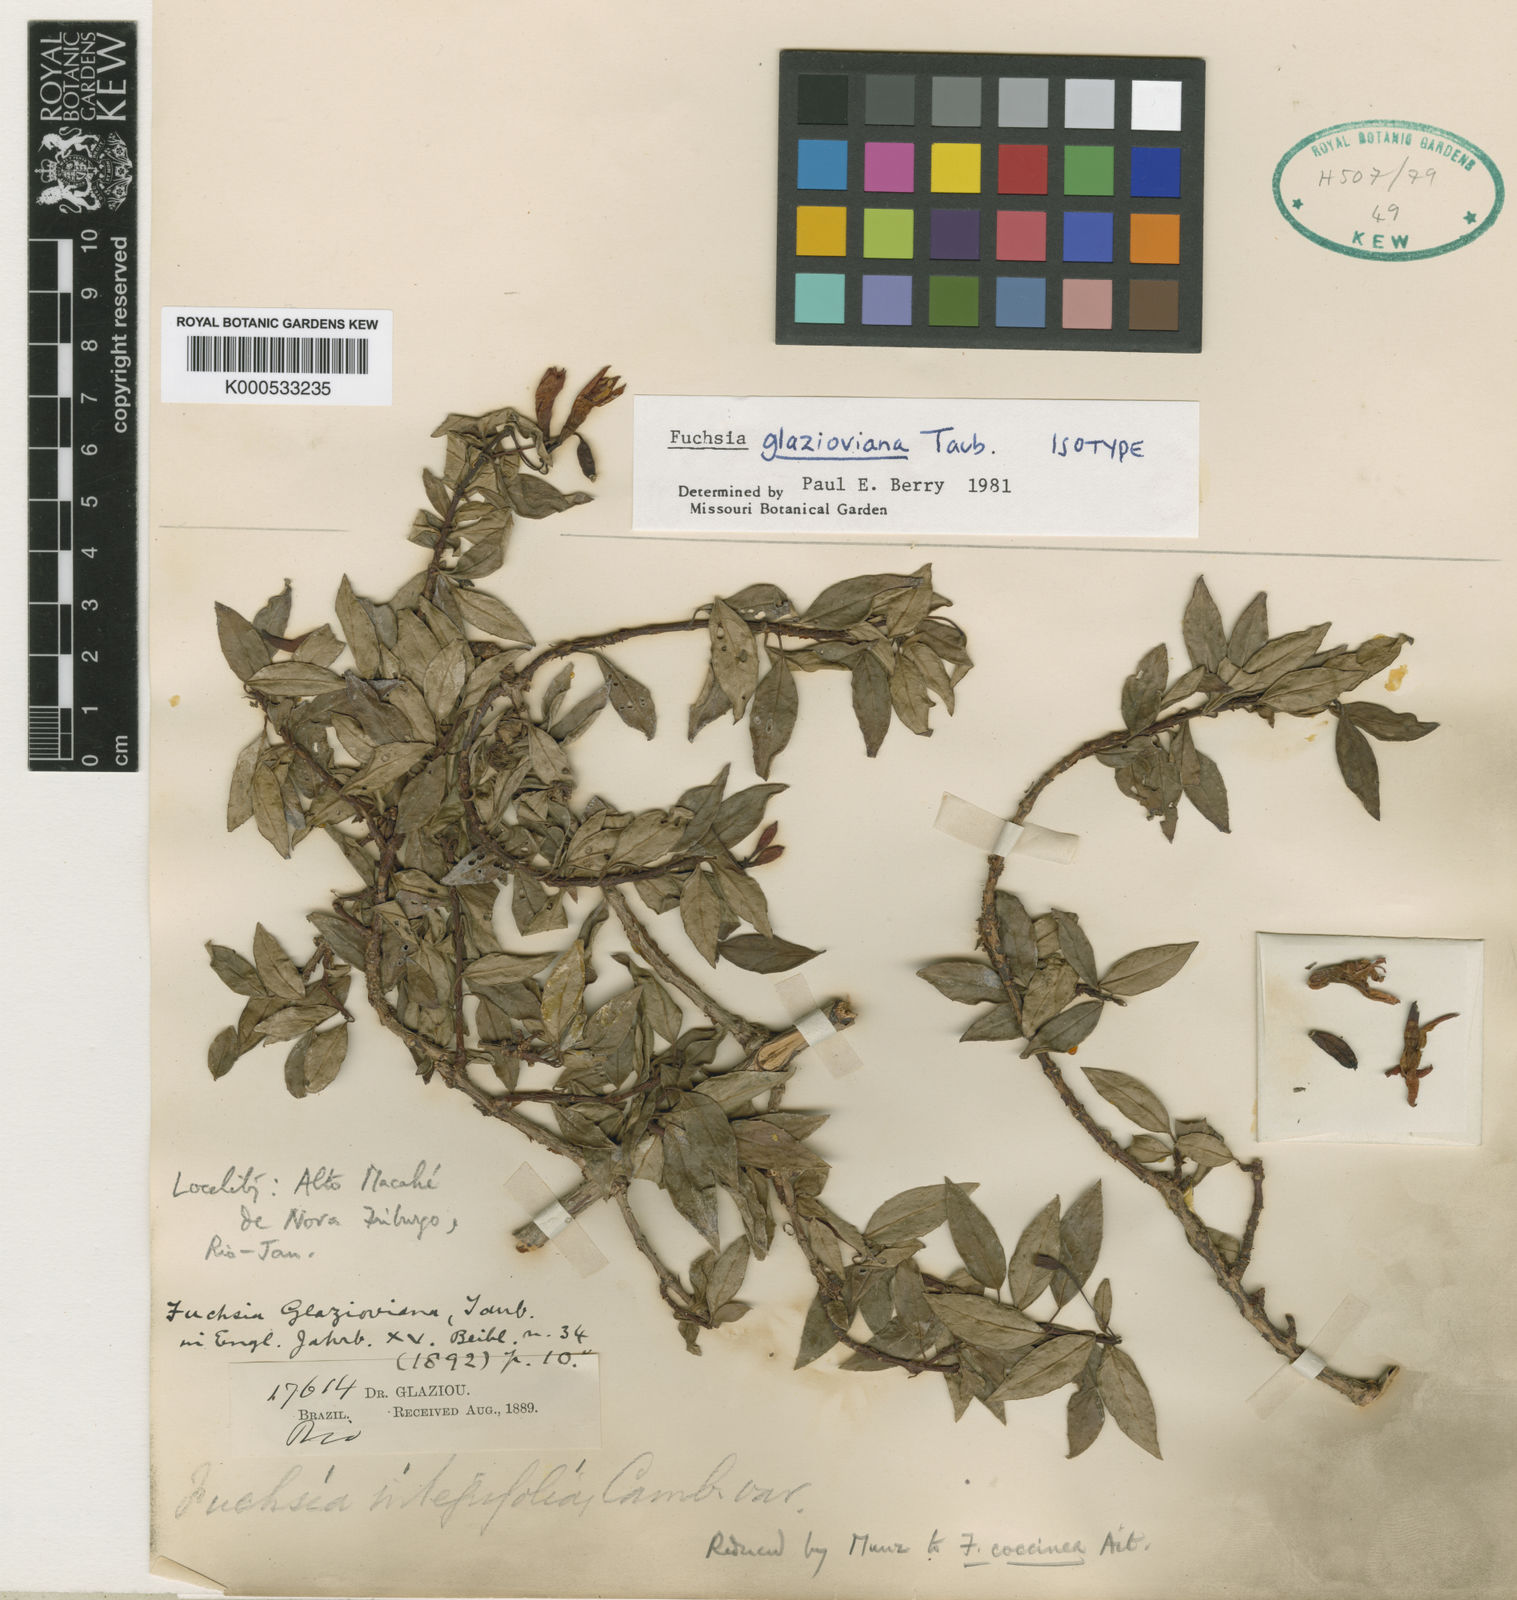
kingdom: Plantae
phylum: Tracheophyta
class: Magnoliopsida
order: Myrtales
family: Onagraceae
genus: Fuchsia
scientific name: Fuchsia glazioviana
